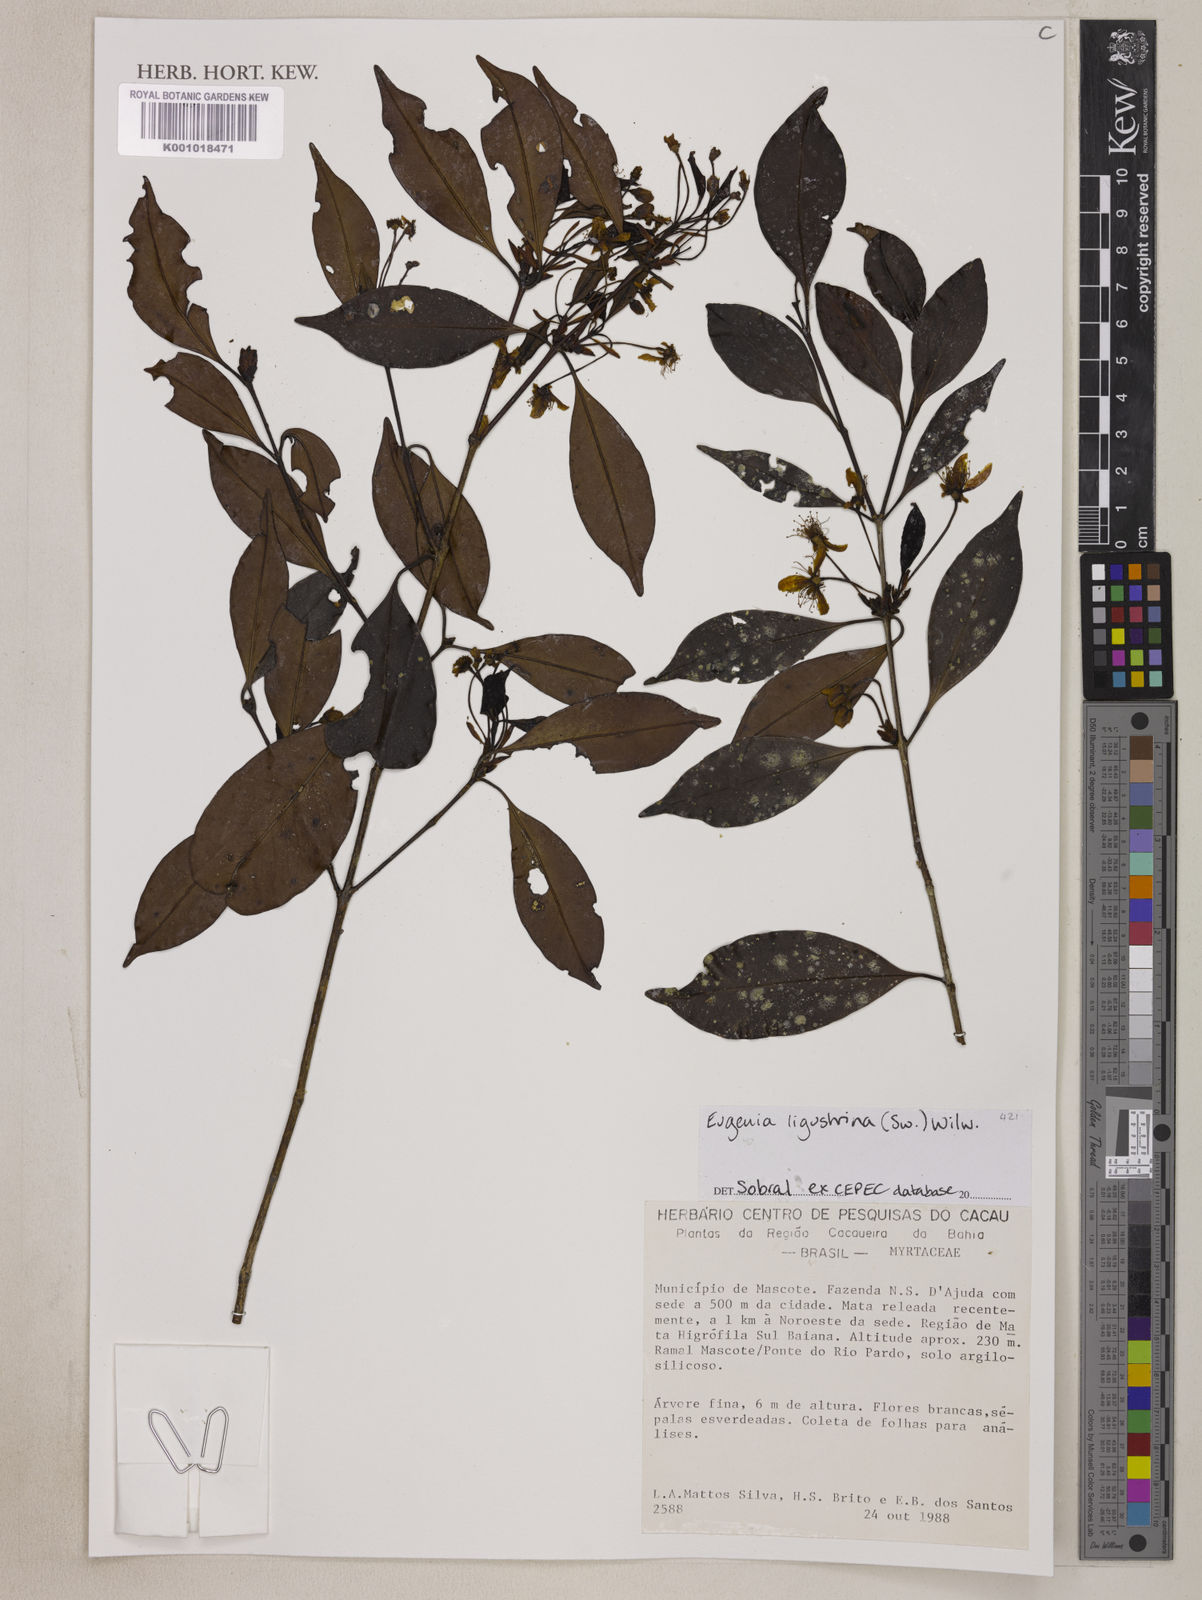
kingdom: Plantae
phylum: Tracheophyta
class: Magnoliopsida
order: Myrtales
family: Myrtaceae
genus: Eugenia
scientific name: Eugenia ligustrina
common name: Privet stopper
